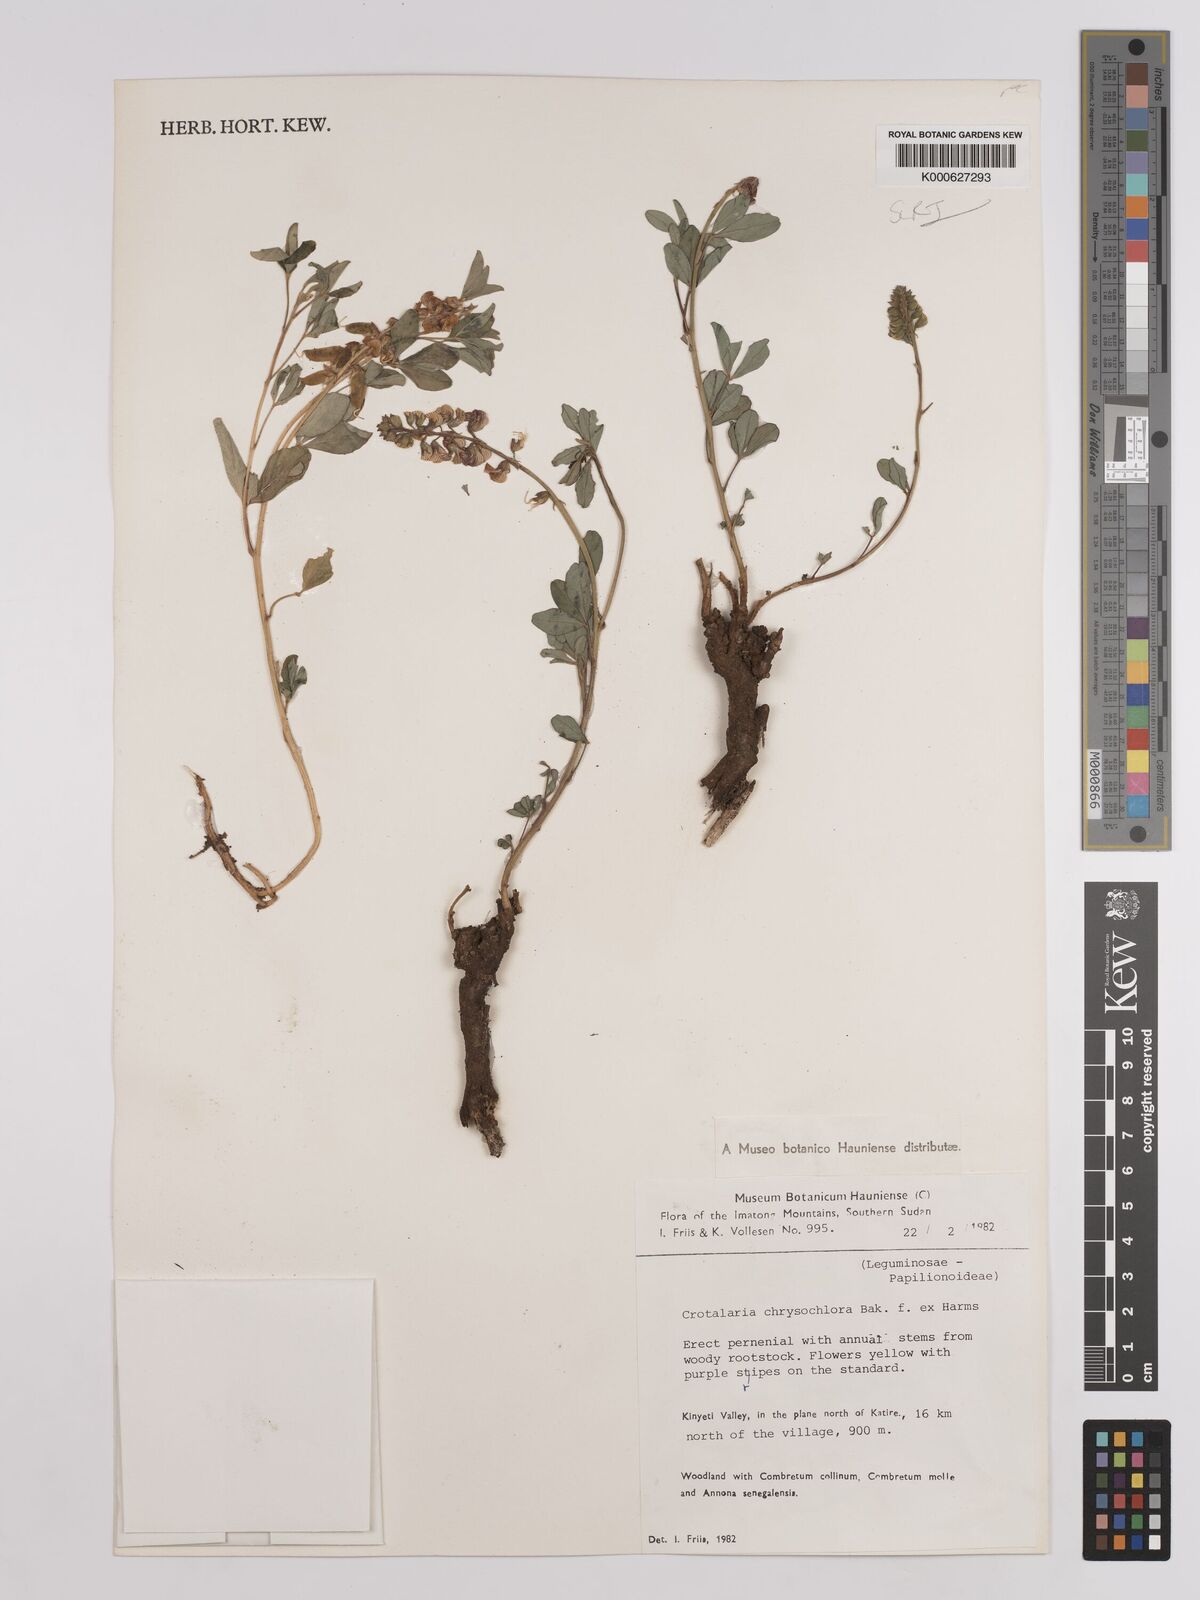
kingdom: Plantae
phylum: Tracheophyta
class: Magnoliopsida
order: Fabales
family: Fabaceae
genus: Crotalaria
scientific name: Crotalaria chrysochlora ex
